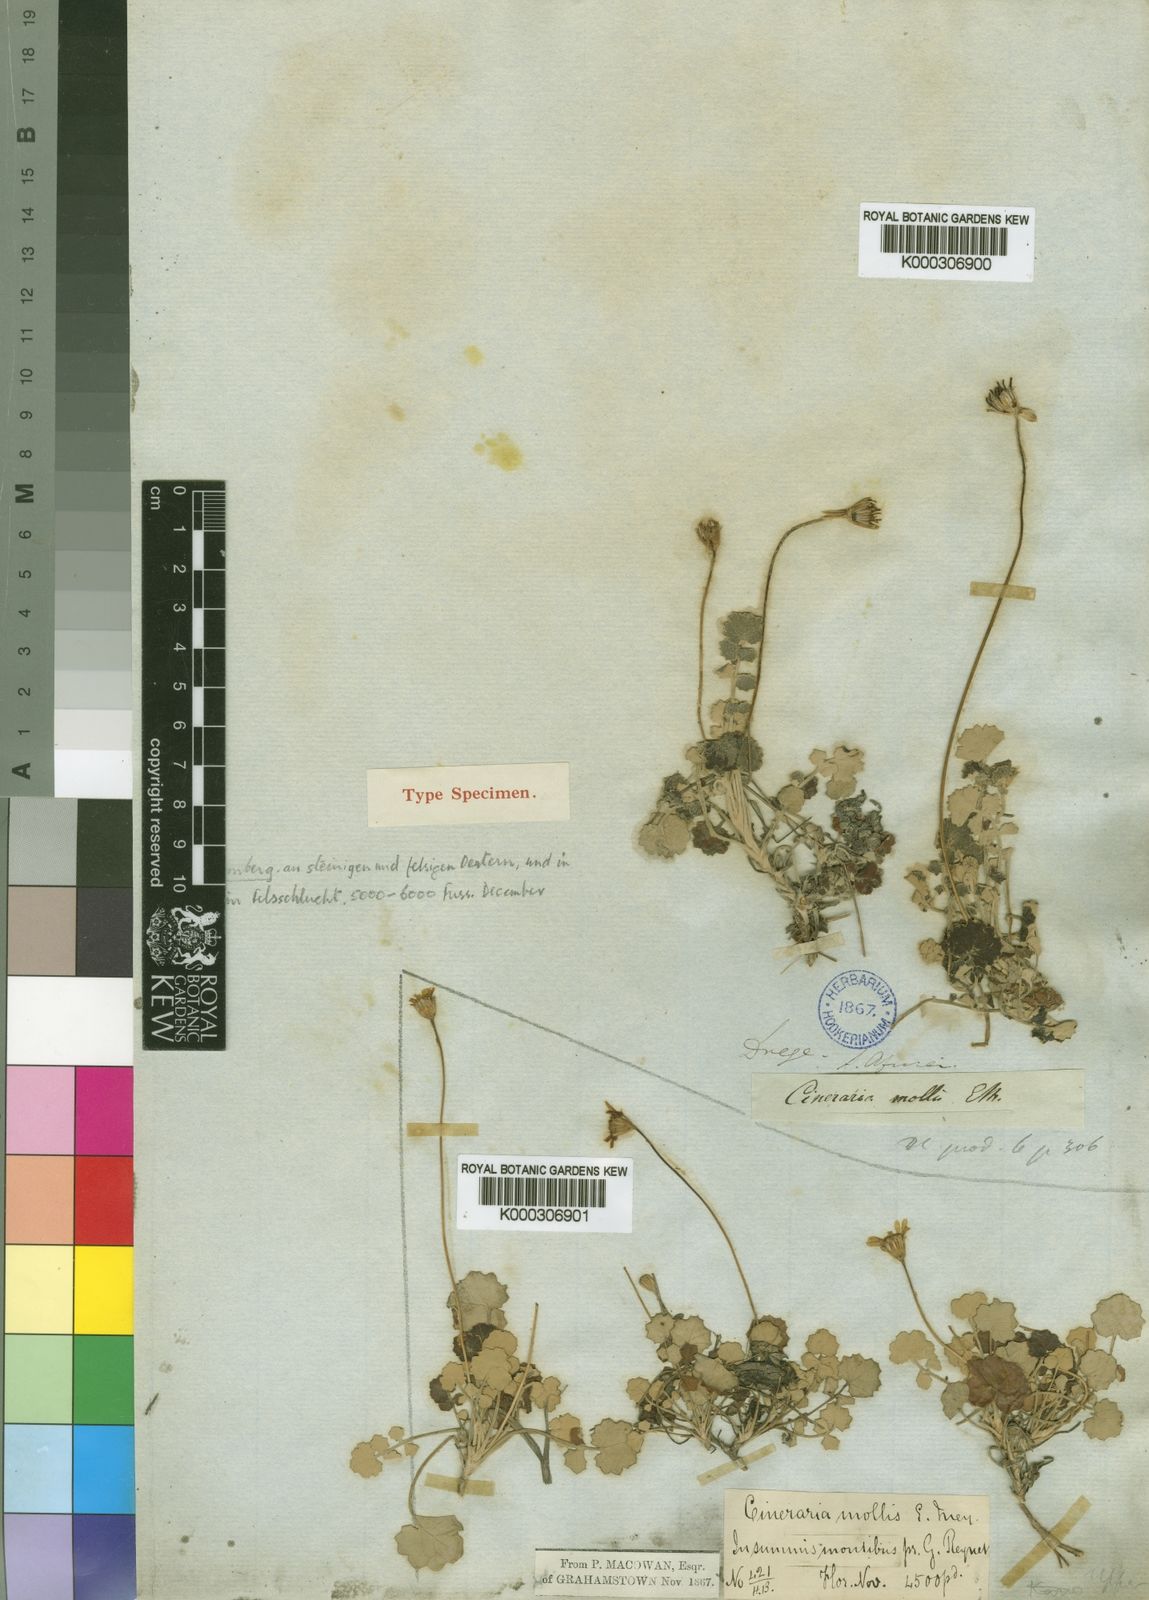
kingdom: Plantae
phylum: Tracheophyta
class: Magnoliopsida
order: Asterales
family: Asteraceae
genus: Cineraria
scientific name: Cineraria mollis
